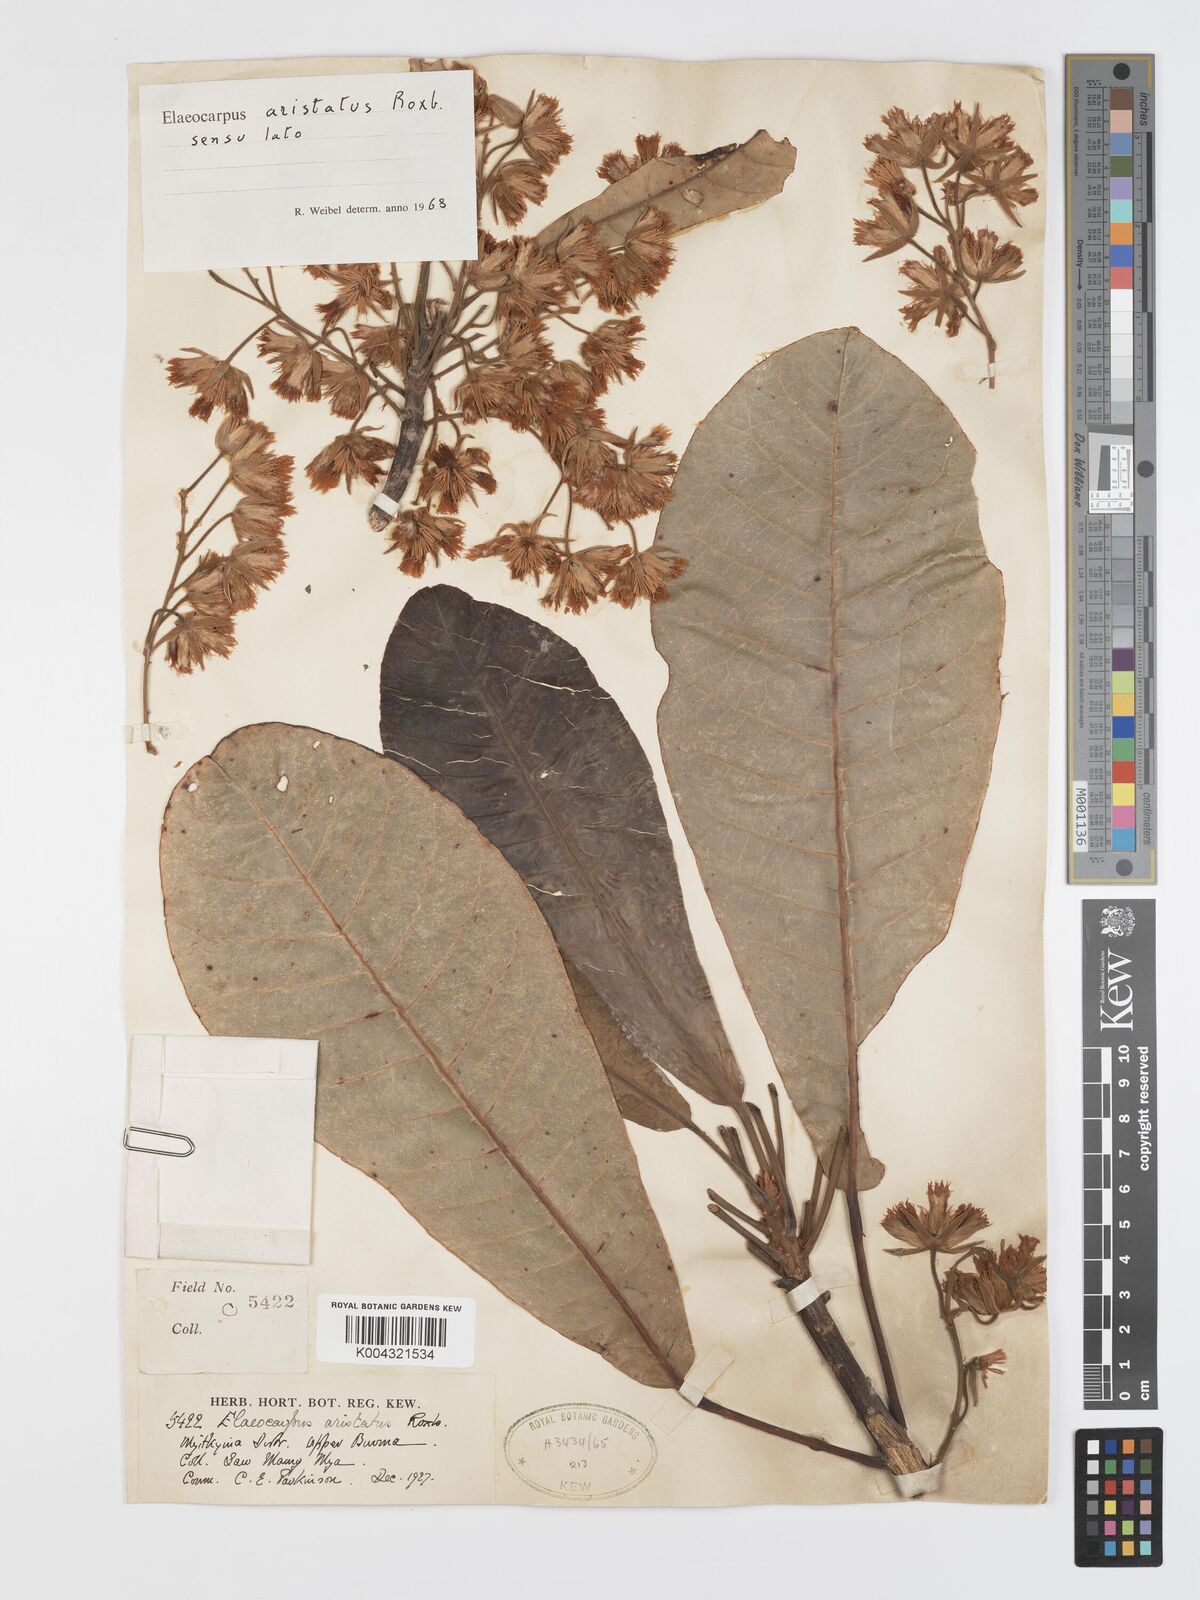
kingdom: Plantae
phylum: Tracheophyta
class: Magnoliopsida
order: Oxalidales
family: Elaeocarpaceae
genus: Elaeocarpus
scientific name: Elaeocarpus aristatus
